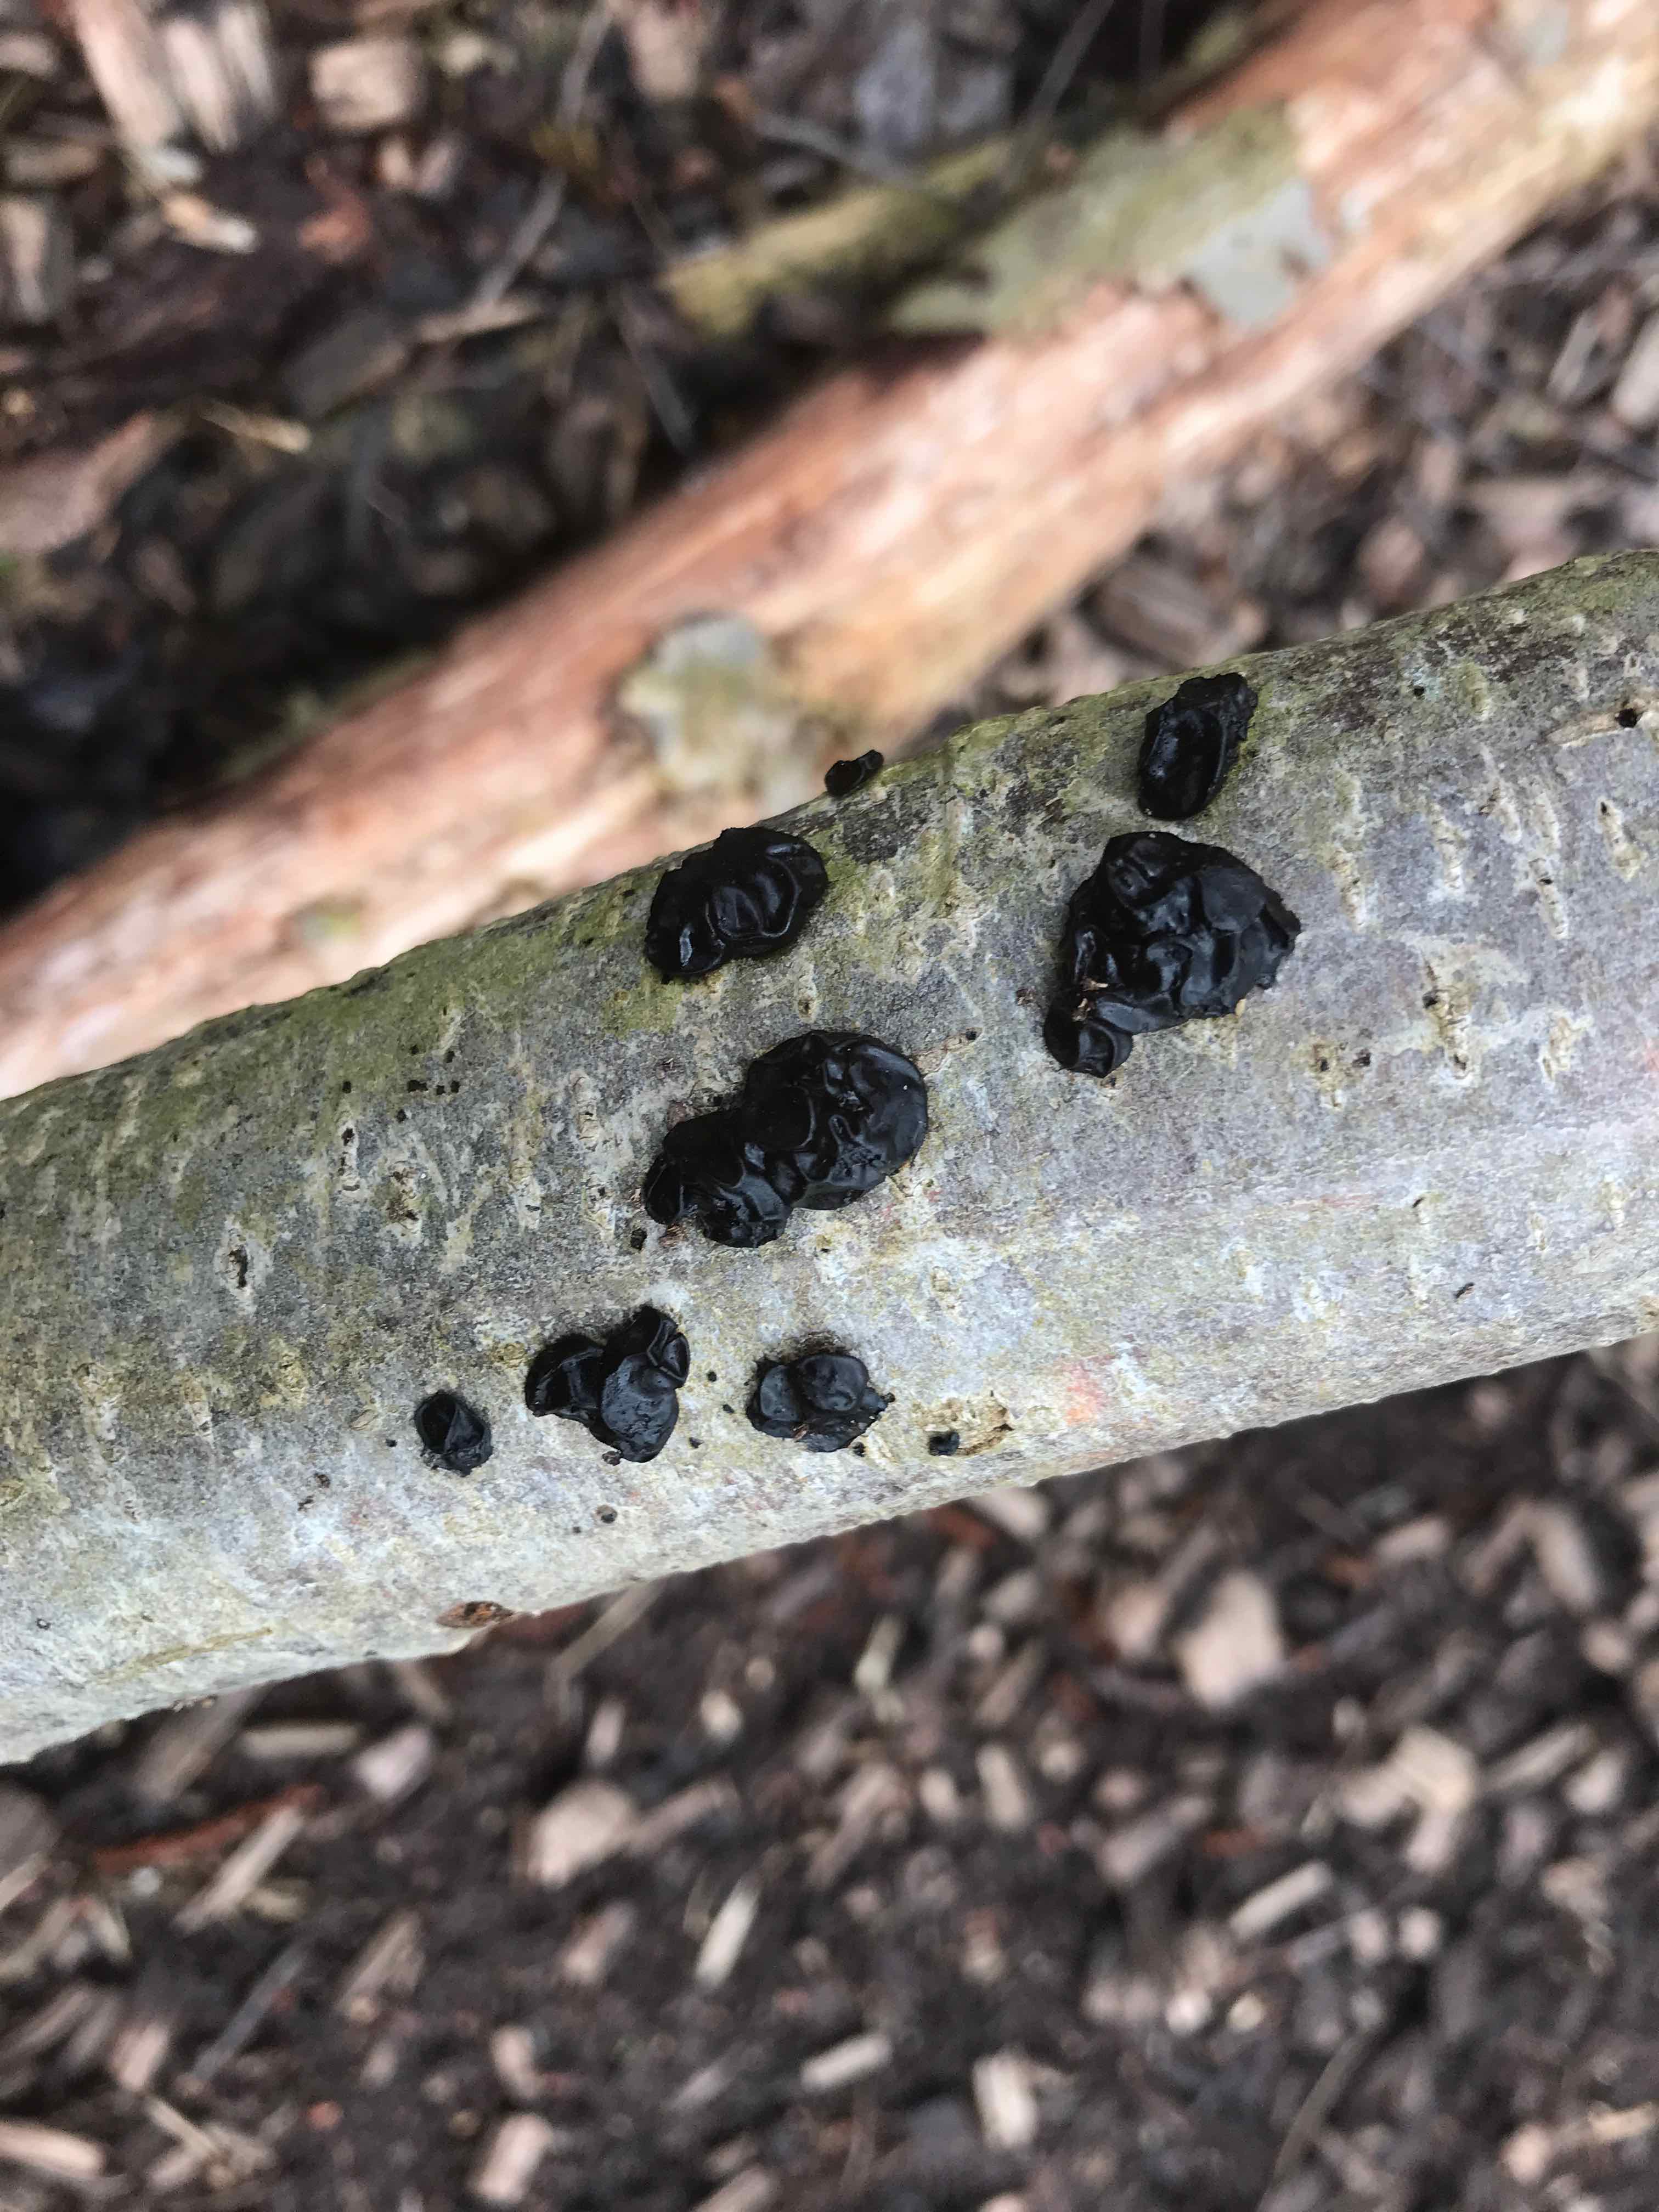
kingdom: Fungi
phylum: Basidiomycota
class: Agaricomycetes
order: Auriculariales
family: Auriculariaceae
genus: Exidia
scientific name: Exidia nigricans
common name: almindelig bævretop
